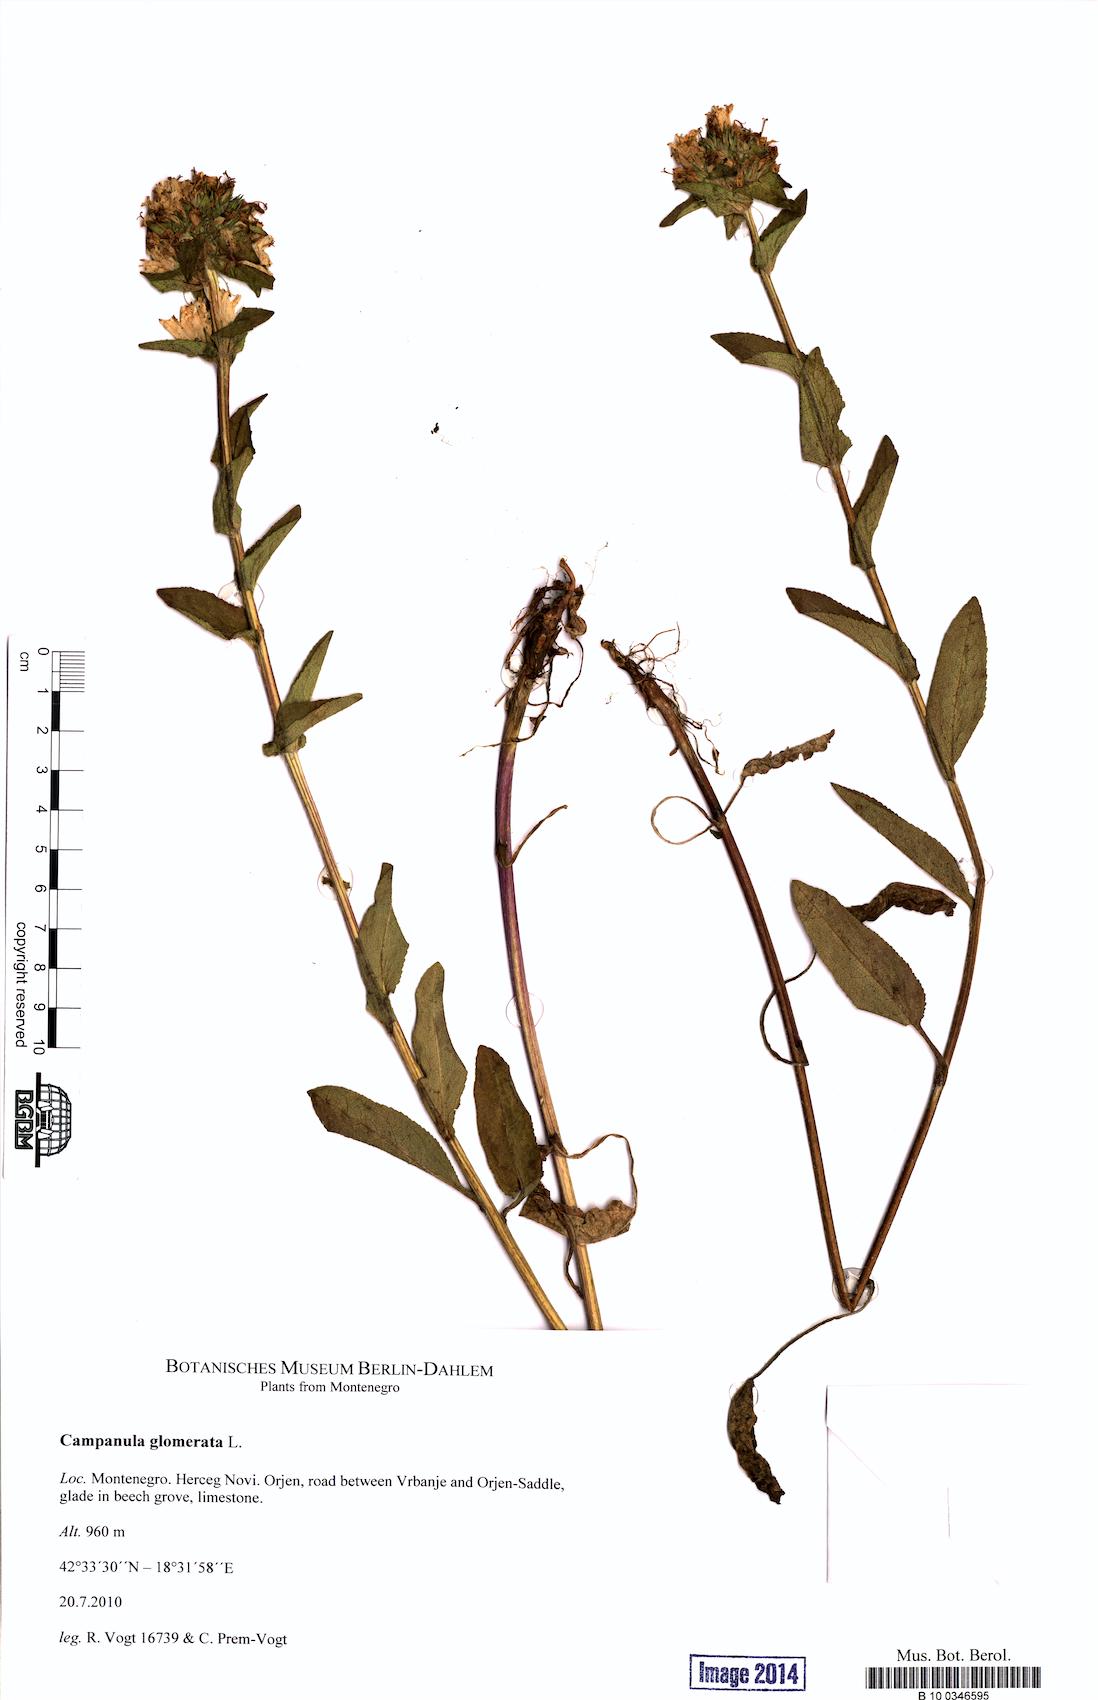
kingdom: Plantae
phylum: Tracheophyta
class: Magnoliopsida
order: Asterales
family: Campanulaceae
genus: Campanula
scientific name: Campanula glomerata
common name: Clustered bellflower
